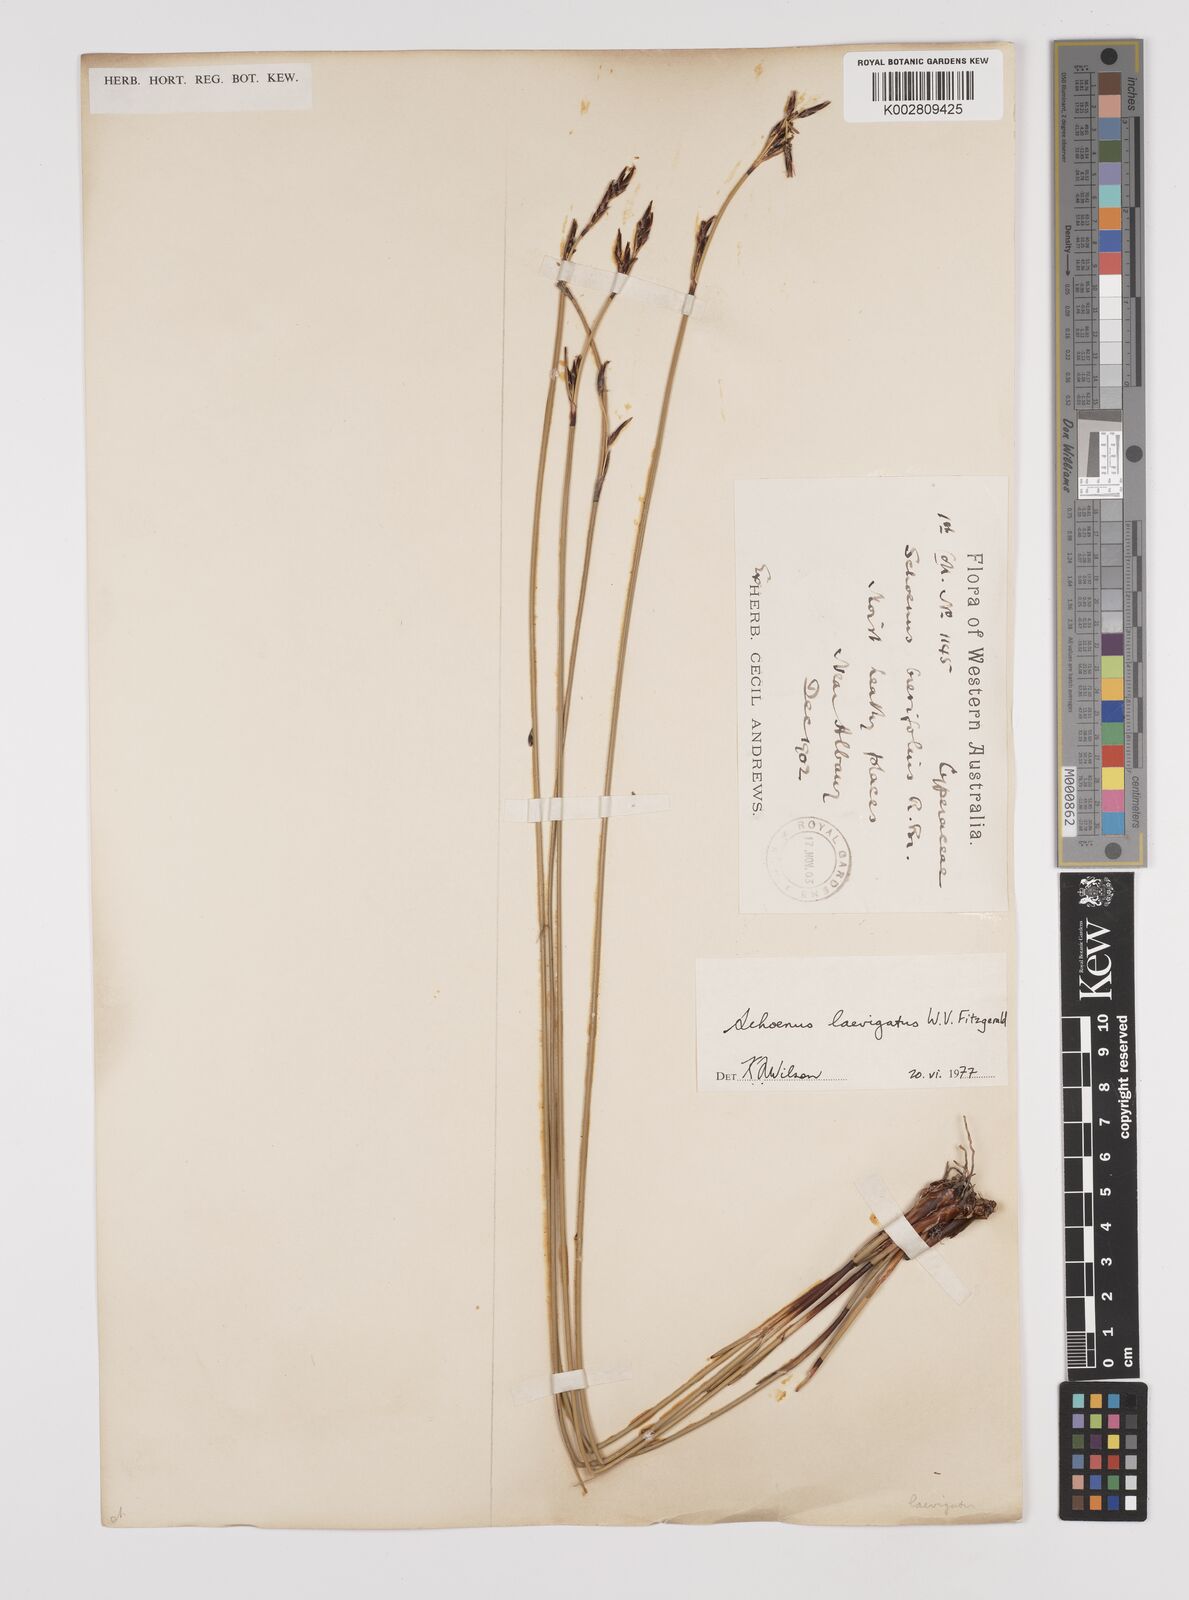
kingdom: Plantae
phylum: Tracheophyta
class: Liliopsida
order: Poales
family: Cyperaceae
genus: Schoenus
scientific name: Schoenus laevigatus
